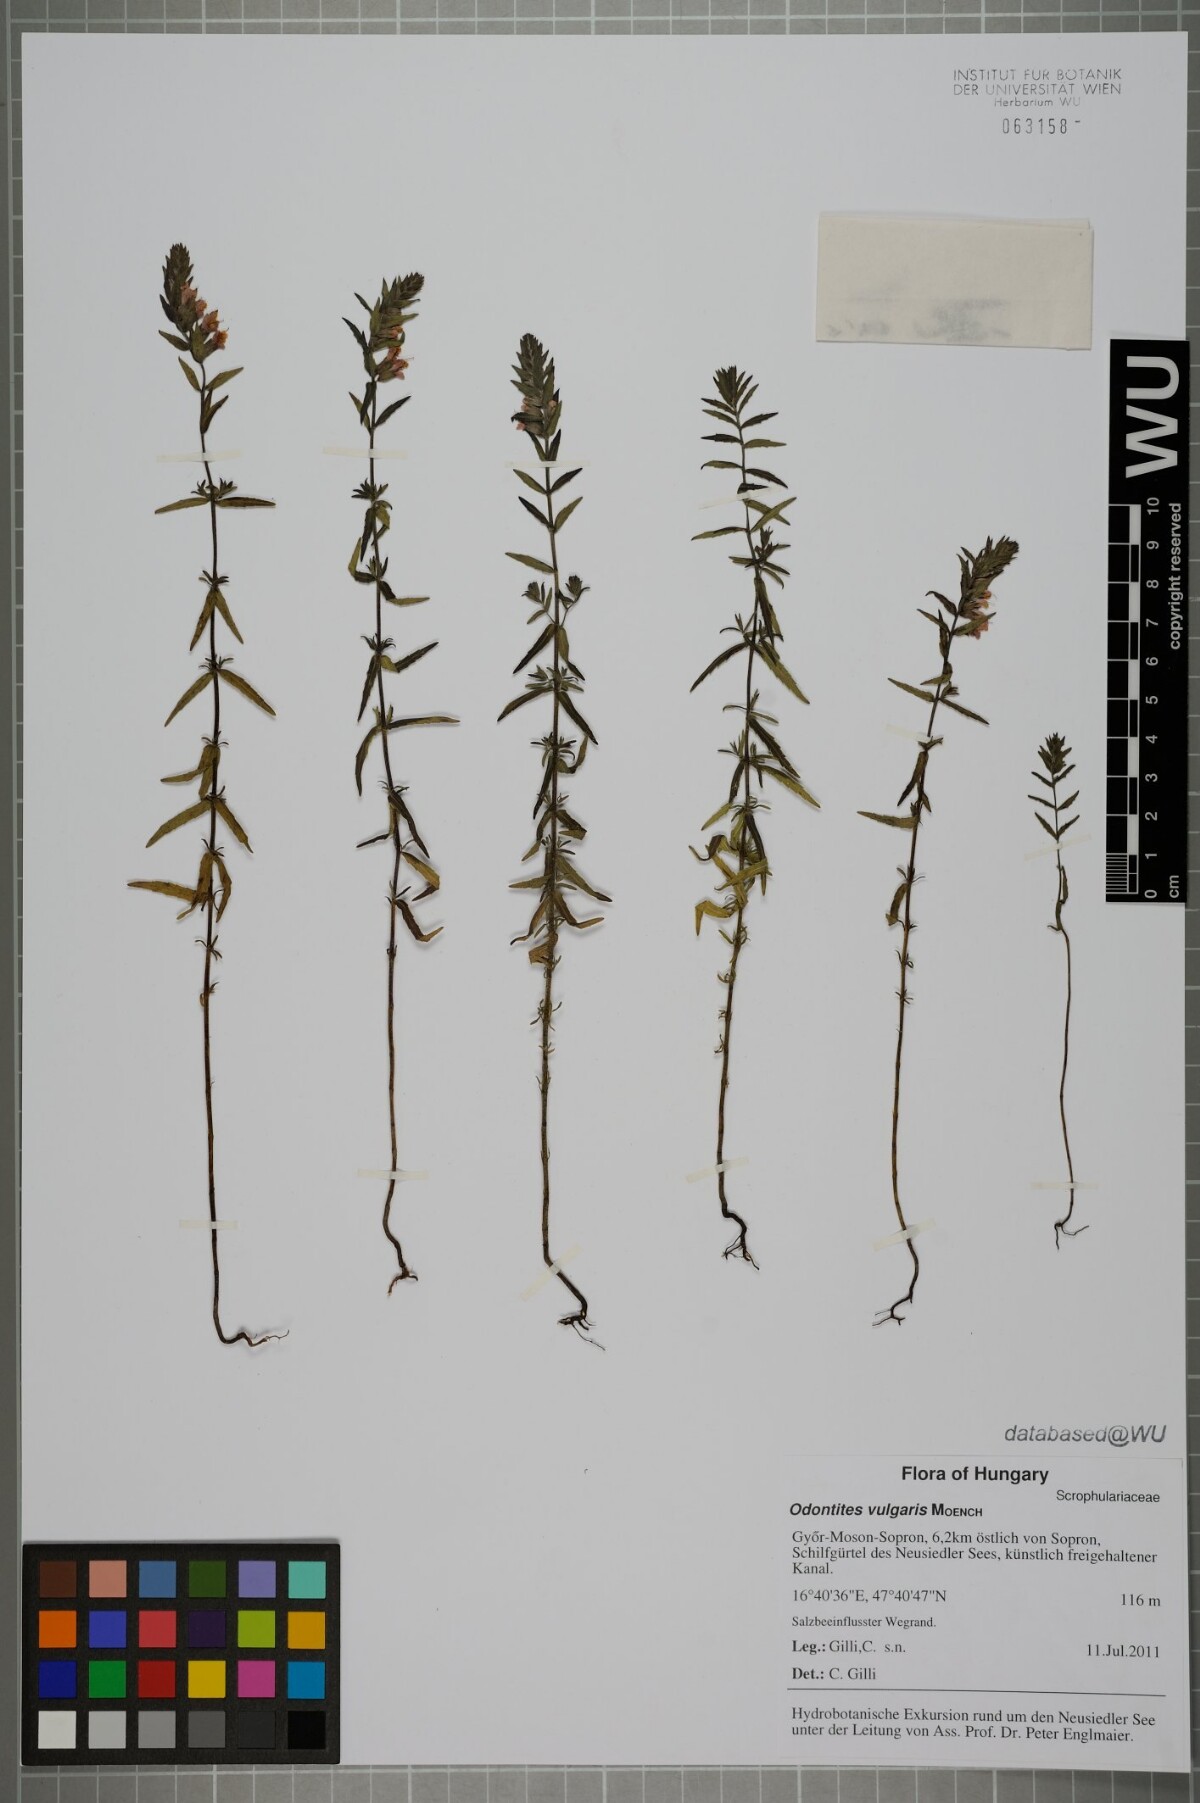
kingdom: Plantae
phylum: Tracheophyta
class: Magnoliopsida
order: Lamiales
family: Orobanchaceae
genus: Odontites
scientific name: Odontites vulgaris
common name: Broomrape
